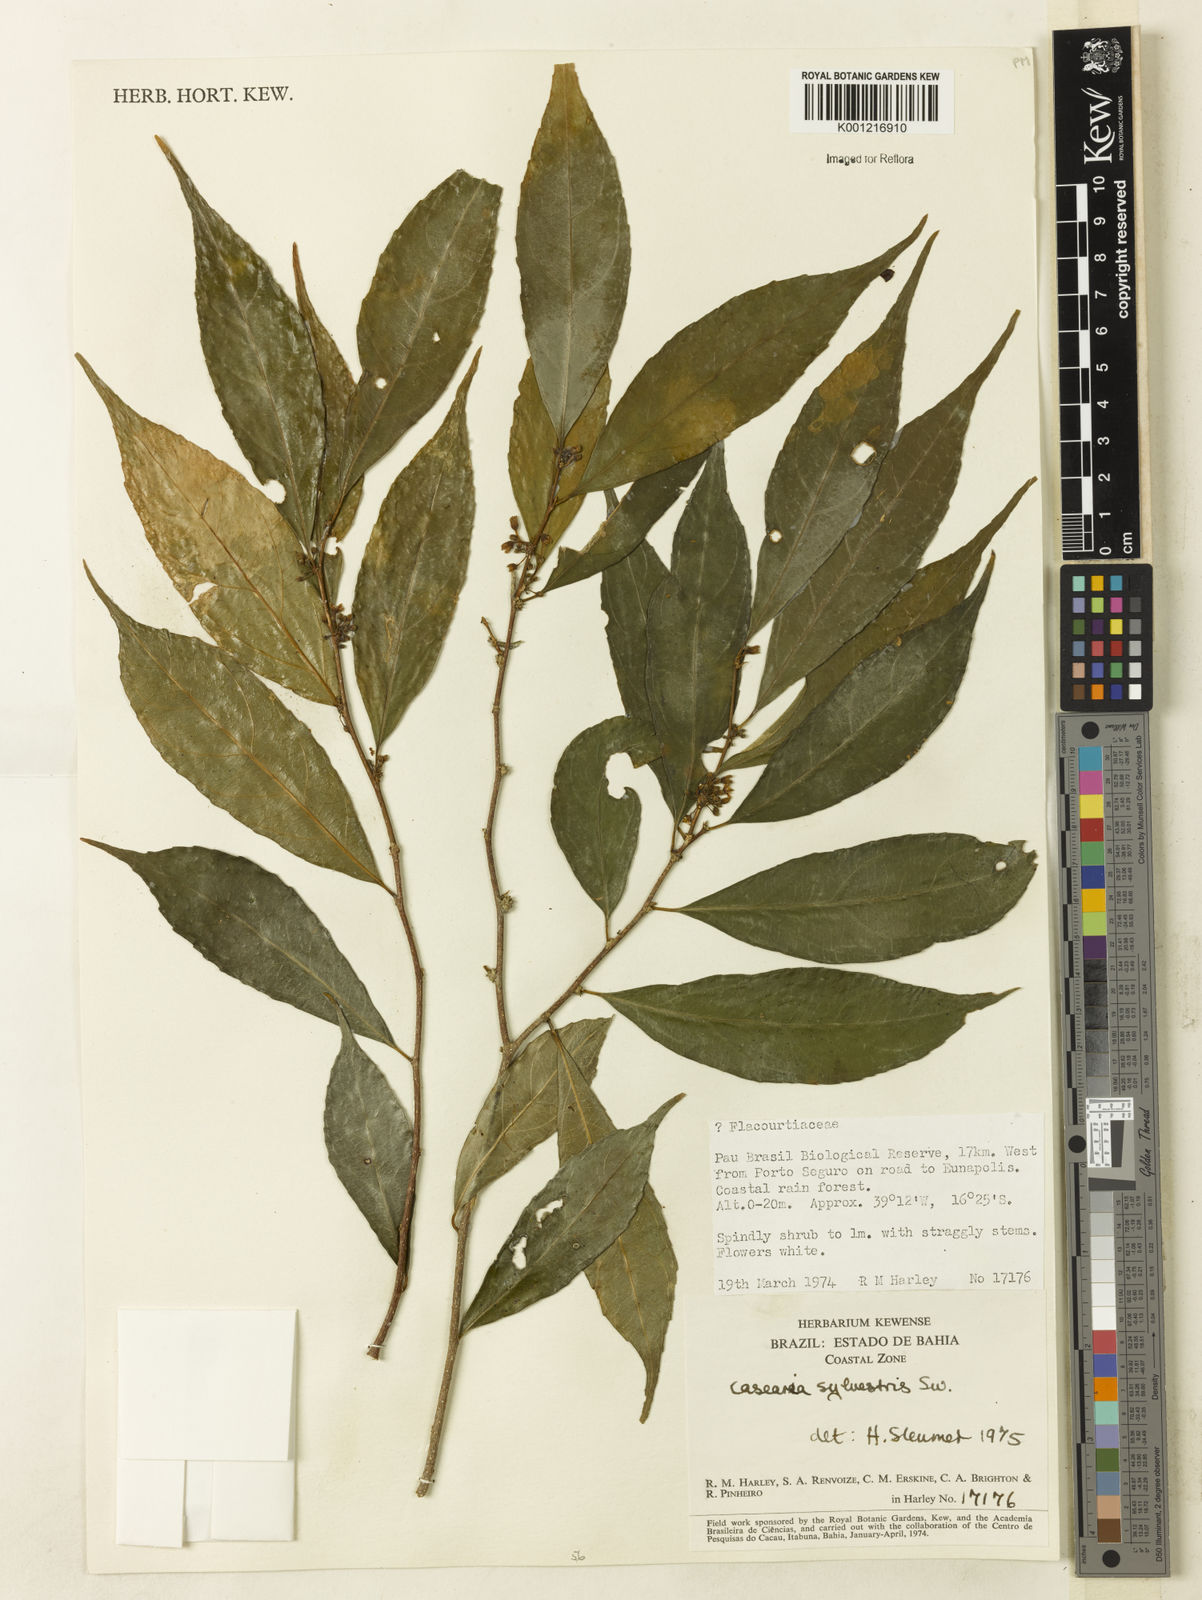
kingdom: Plantae
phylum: Tracheophyta
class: Magnoliopsida
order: Malpighiales
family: Salicaceae
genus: Casearia
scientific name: Casearia sylvestris
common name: Wild sage
